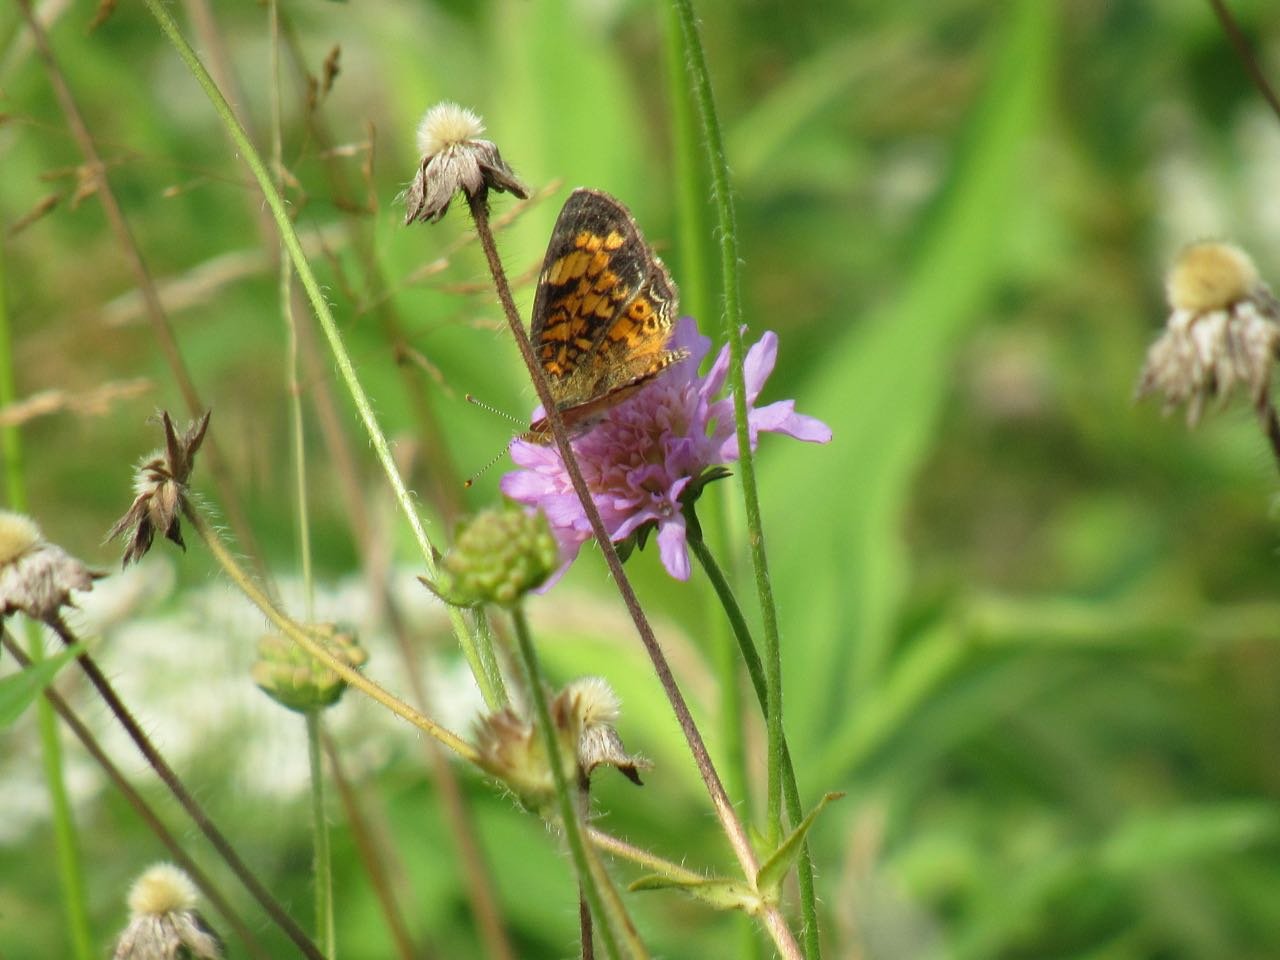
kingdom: Animalia
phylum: Arthropoda
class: Insecta
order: Lepidoptera
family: Nymphalidae
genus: Phyciodes
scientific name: Phyciodes tharos
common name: Pearl Crescent
